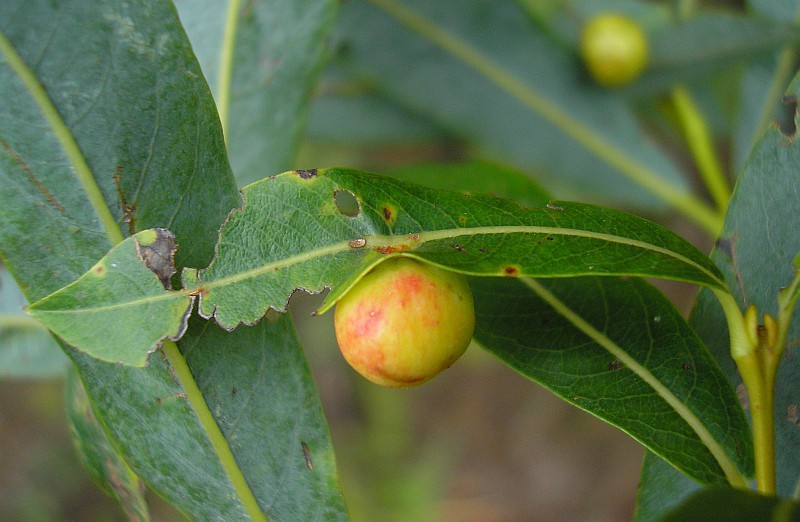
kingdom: Animalia
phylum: Arthropoda
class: Insecta
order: Hymenoptera
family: Tenthredinidae
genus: Pontania
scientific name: Pontania viminalis
